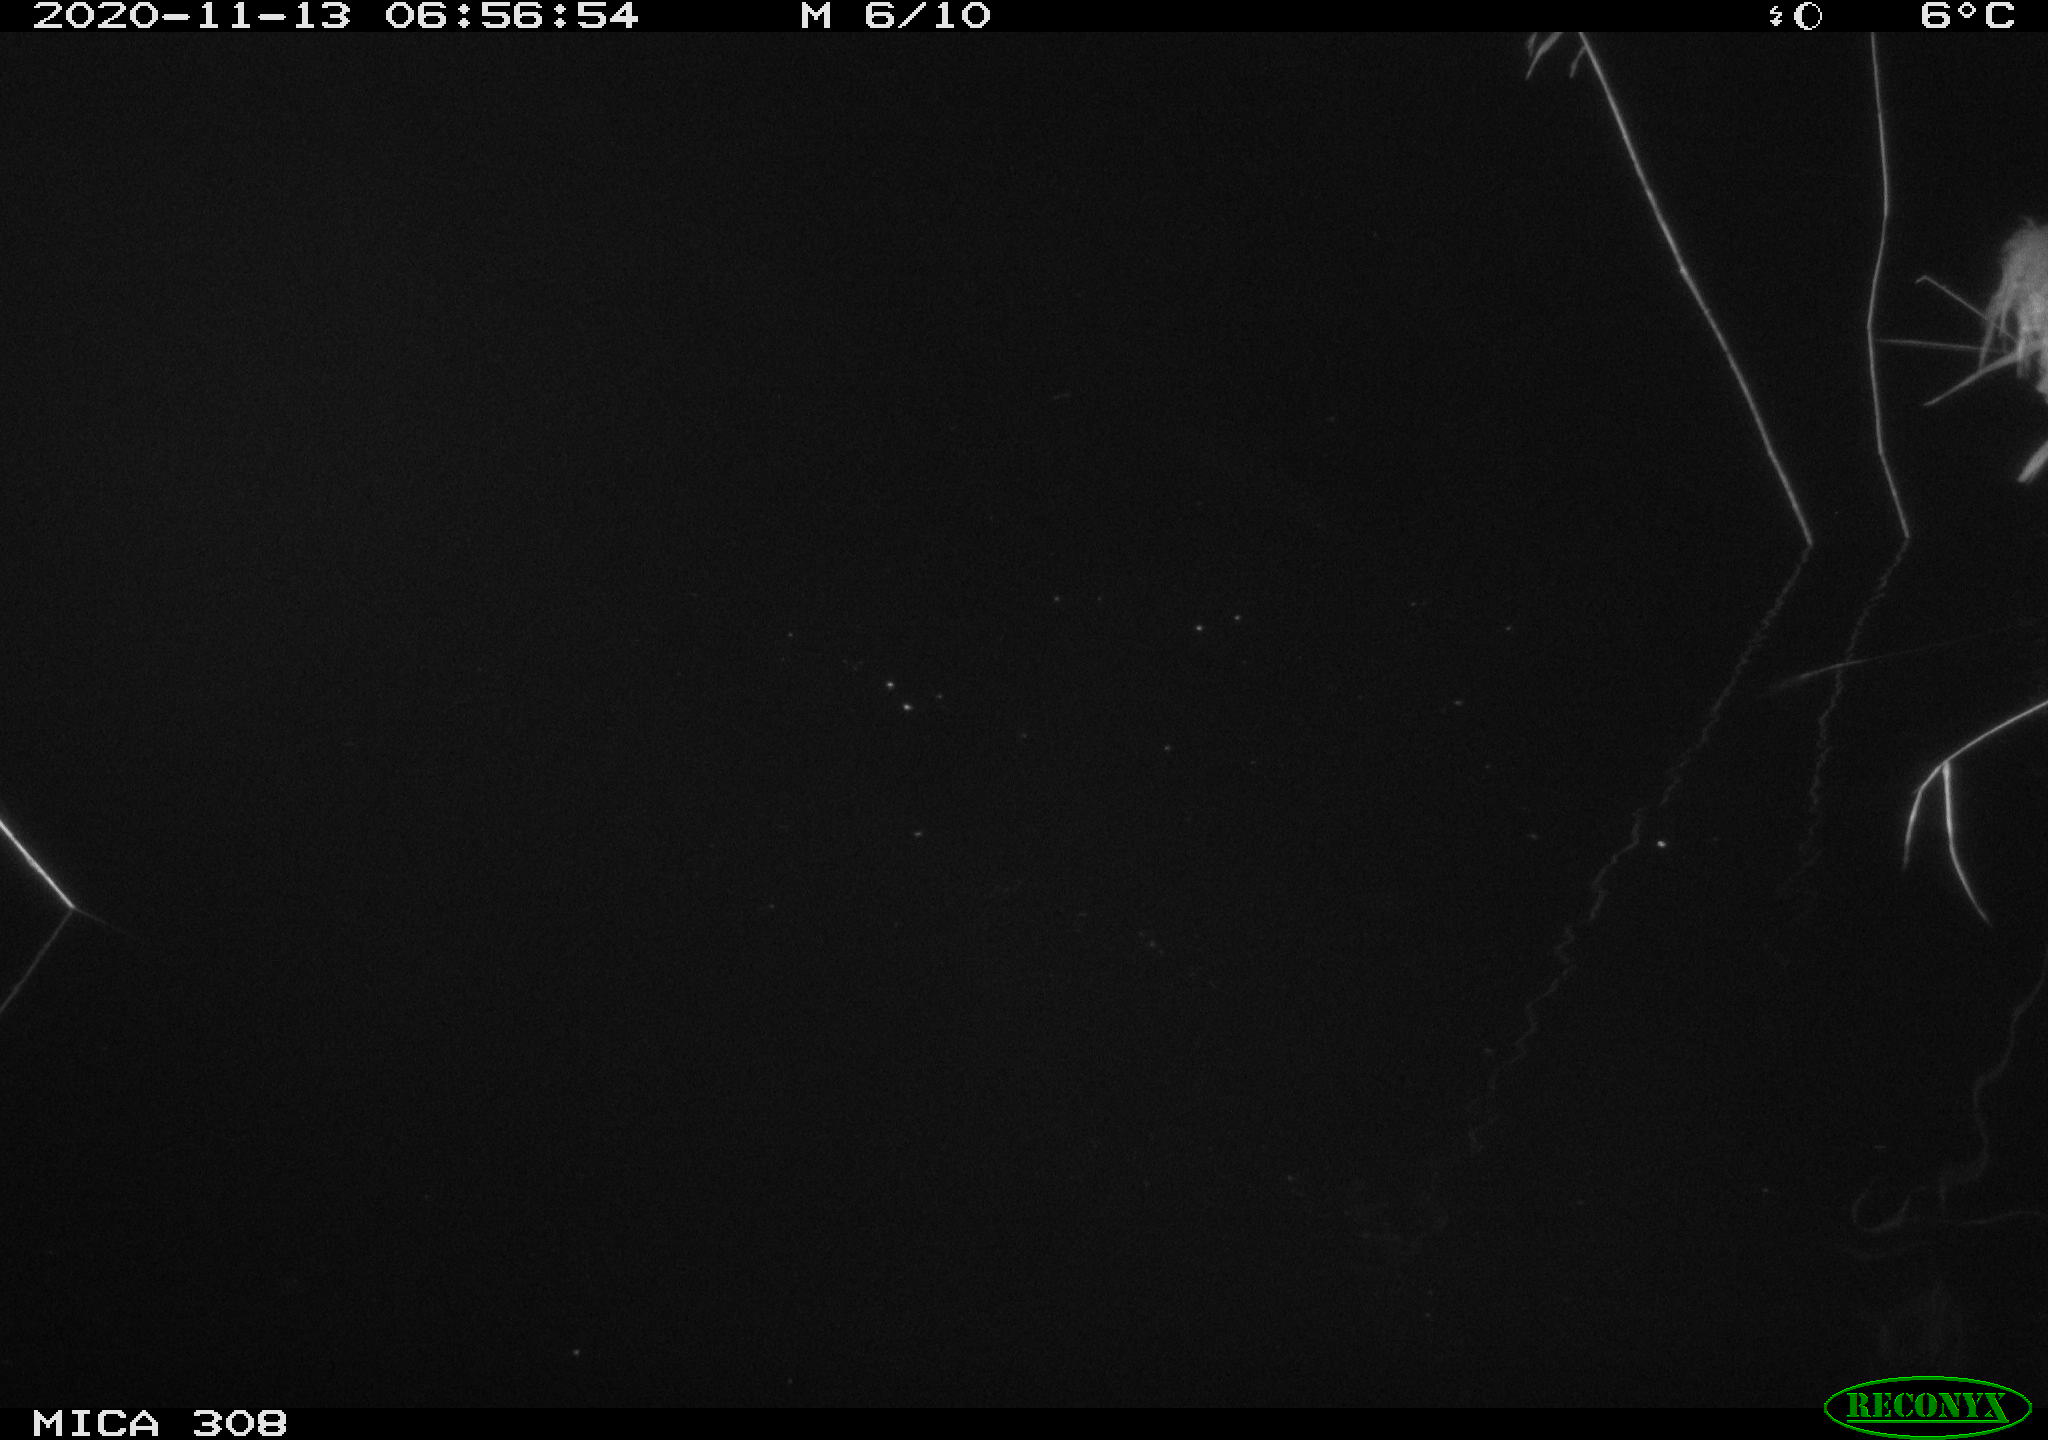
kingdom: Animalia
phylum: Chordata
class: Aves
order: Gruiformes
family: Rallidae
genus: Fulica
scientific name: Fulica atra
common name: Eurasian coot
